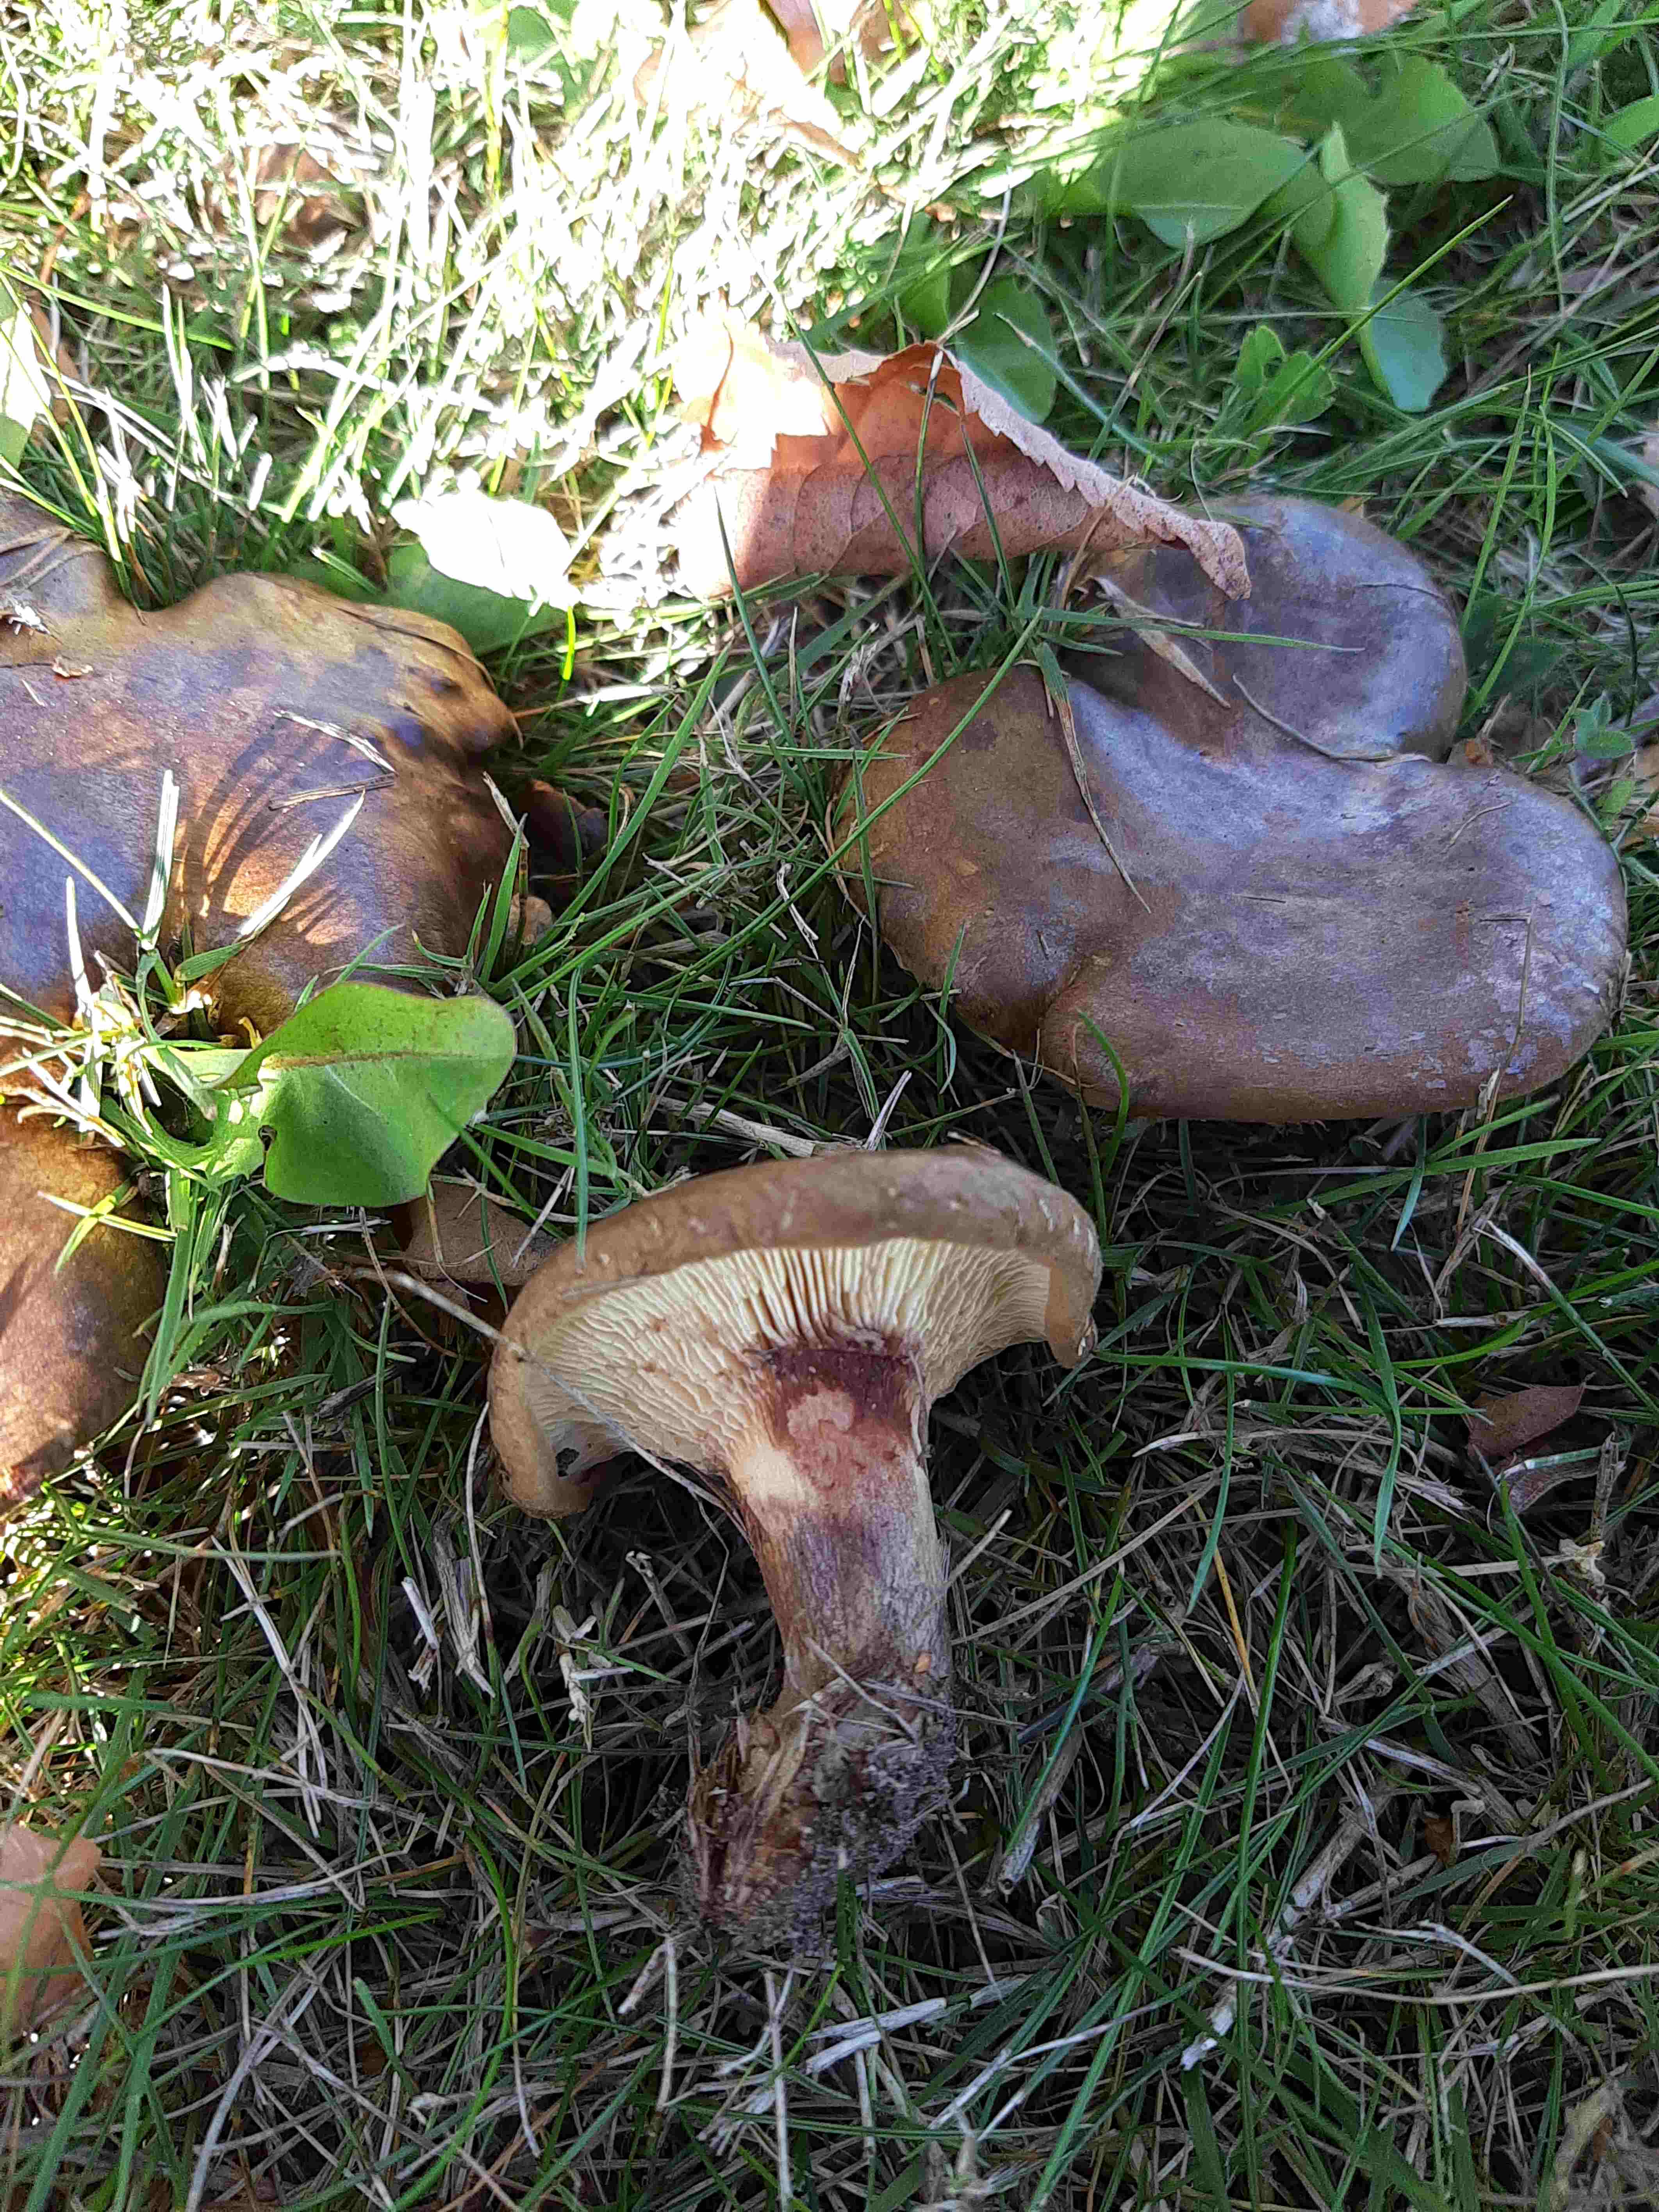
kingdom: Fungi
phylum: Basidiomycota
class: Agaricomycetes
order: Boletales
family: Paxillaceae
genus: Paxillus
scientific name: Paxillus
